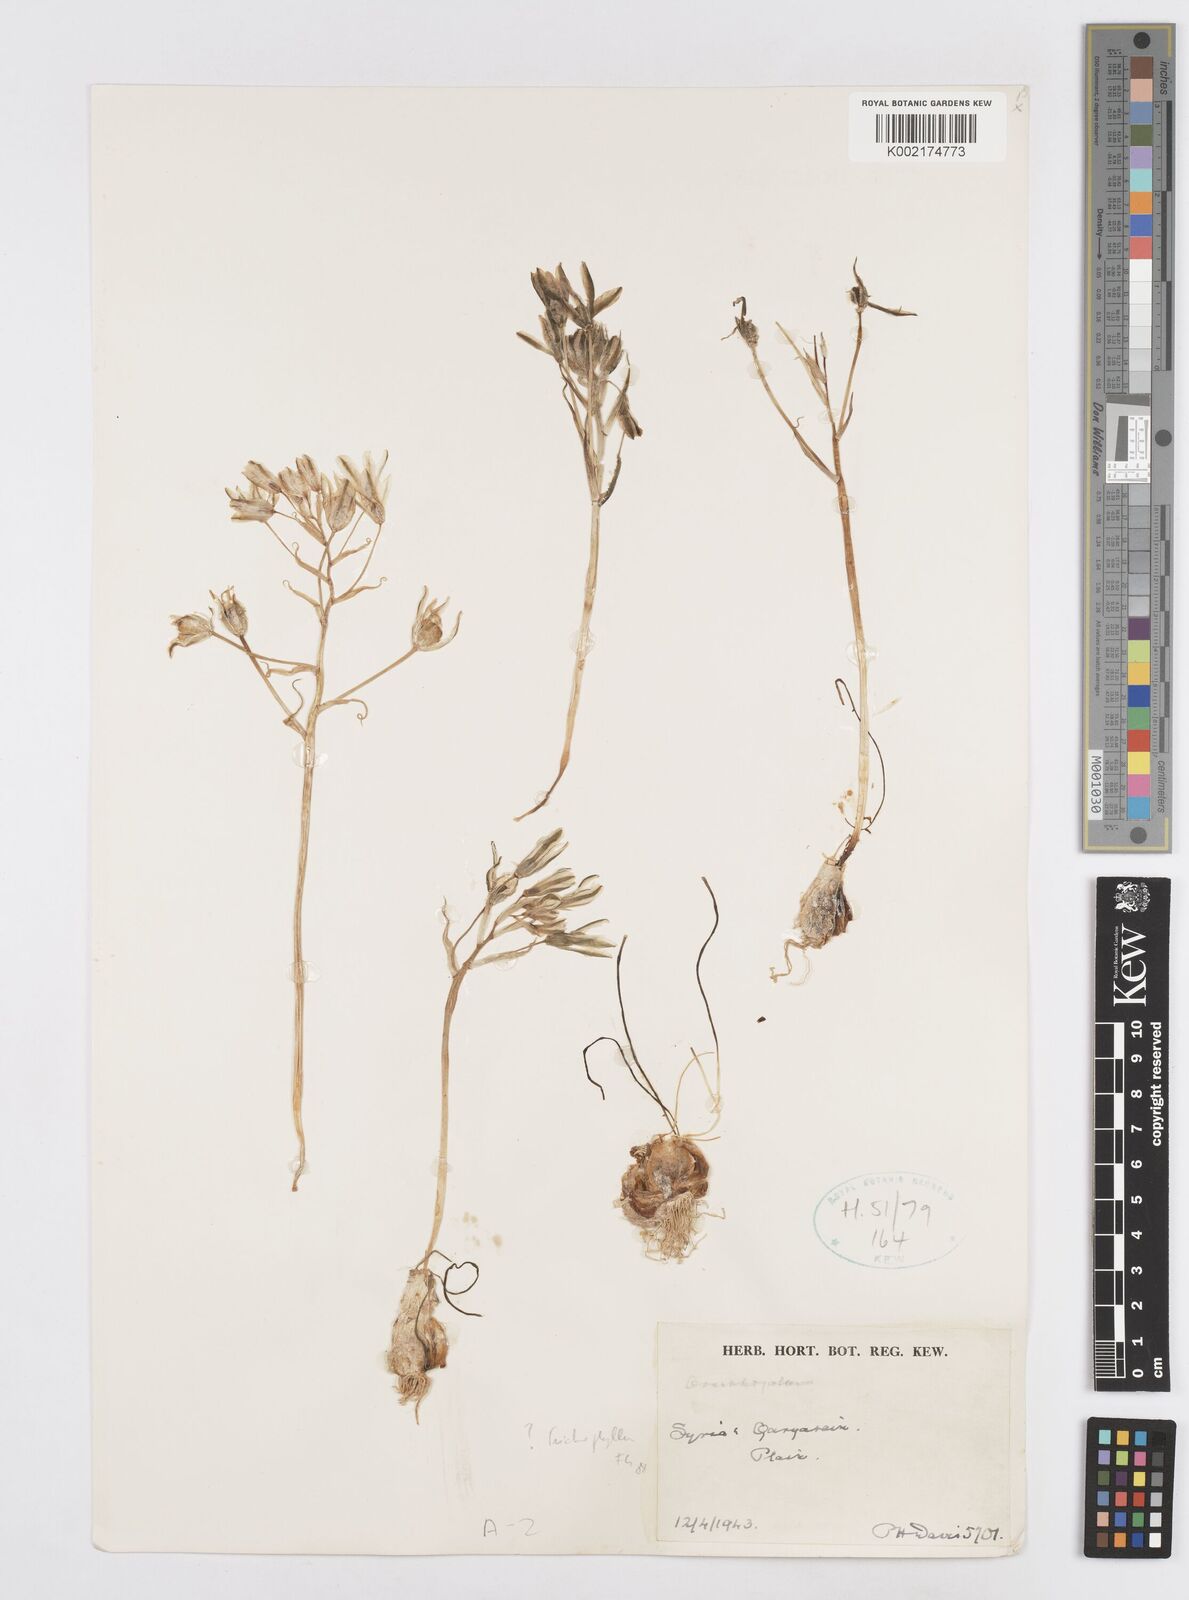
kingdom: Plantae
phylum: Tracheophyta
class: Liliopsida
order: Asparagales
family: Asparagaceae
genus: Ornithogalum
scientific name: Ornithogalum trichophyllum
